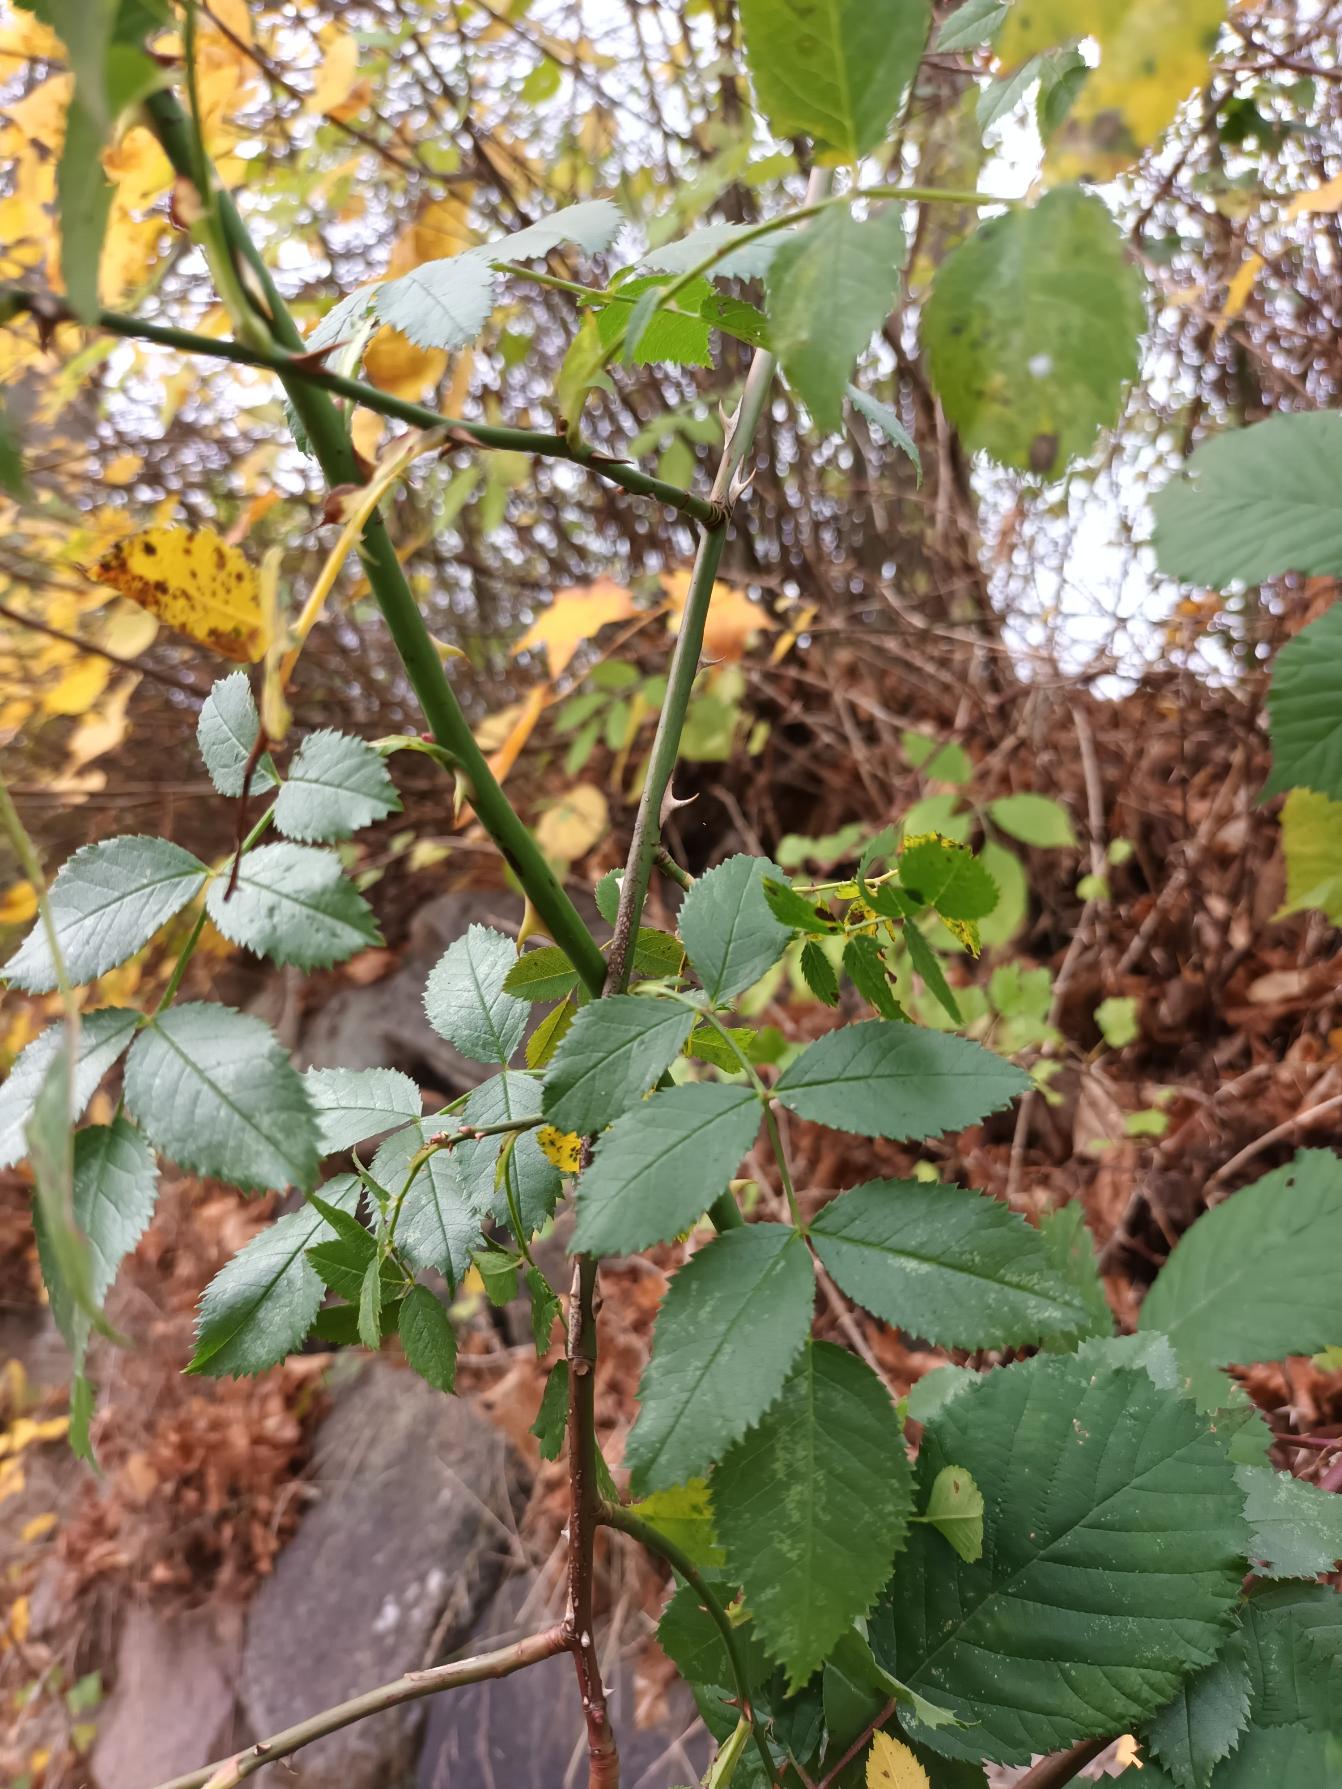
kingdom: Plantae
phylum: Tracheophyta
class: Magnoliopsida
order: Rosales
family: Rosaceae
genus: Rosa
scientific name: Rosa canina
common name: Glat hunde-rose
